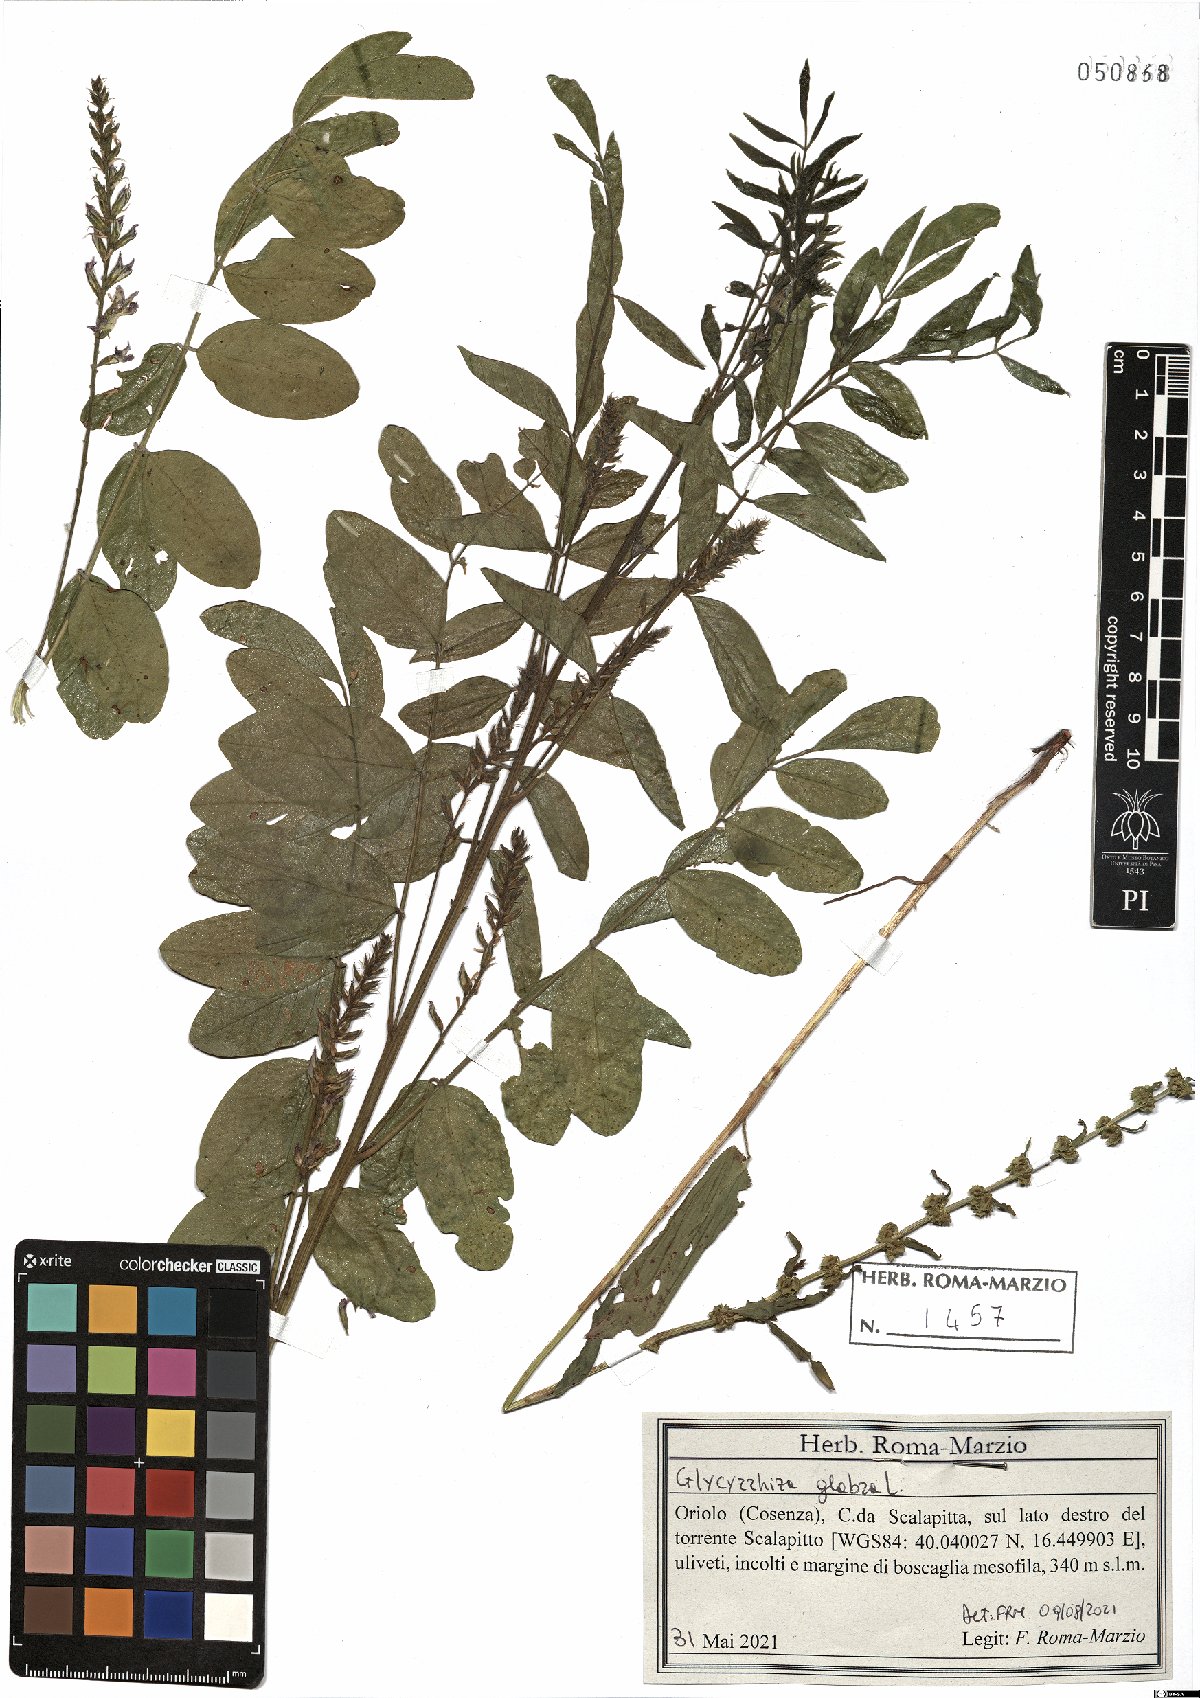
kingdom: Plantae
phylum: Tracheophyta
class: Magnoliopsida
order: Fabales
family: Fabaceae
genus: Glycyrrhiza
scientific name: Glycyrrhiza glabra
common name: Liquorice
